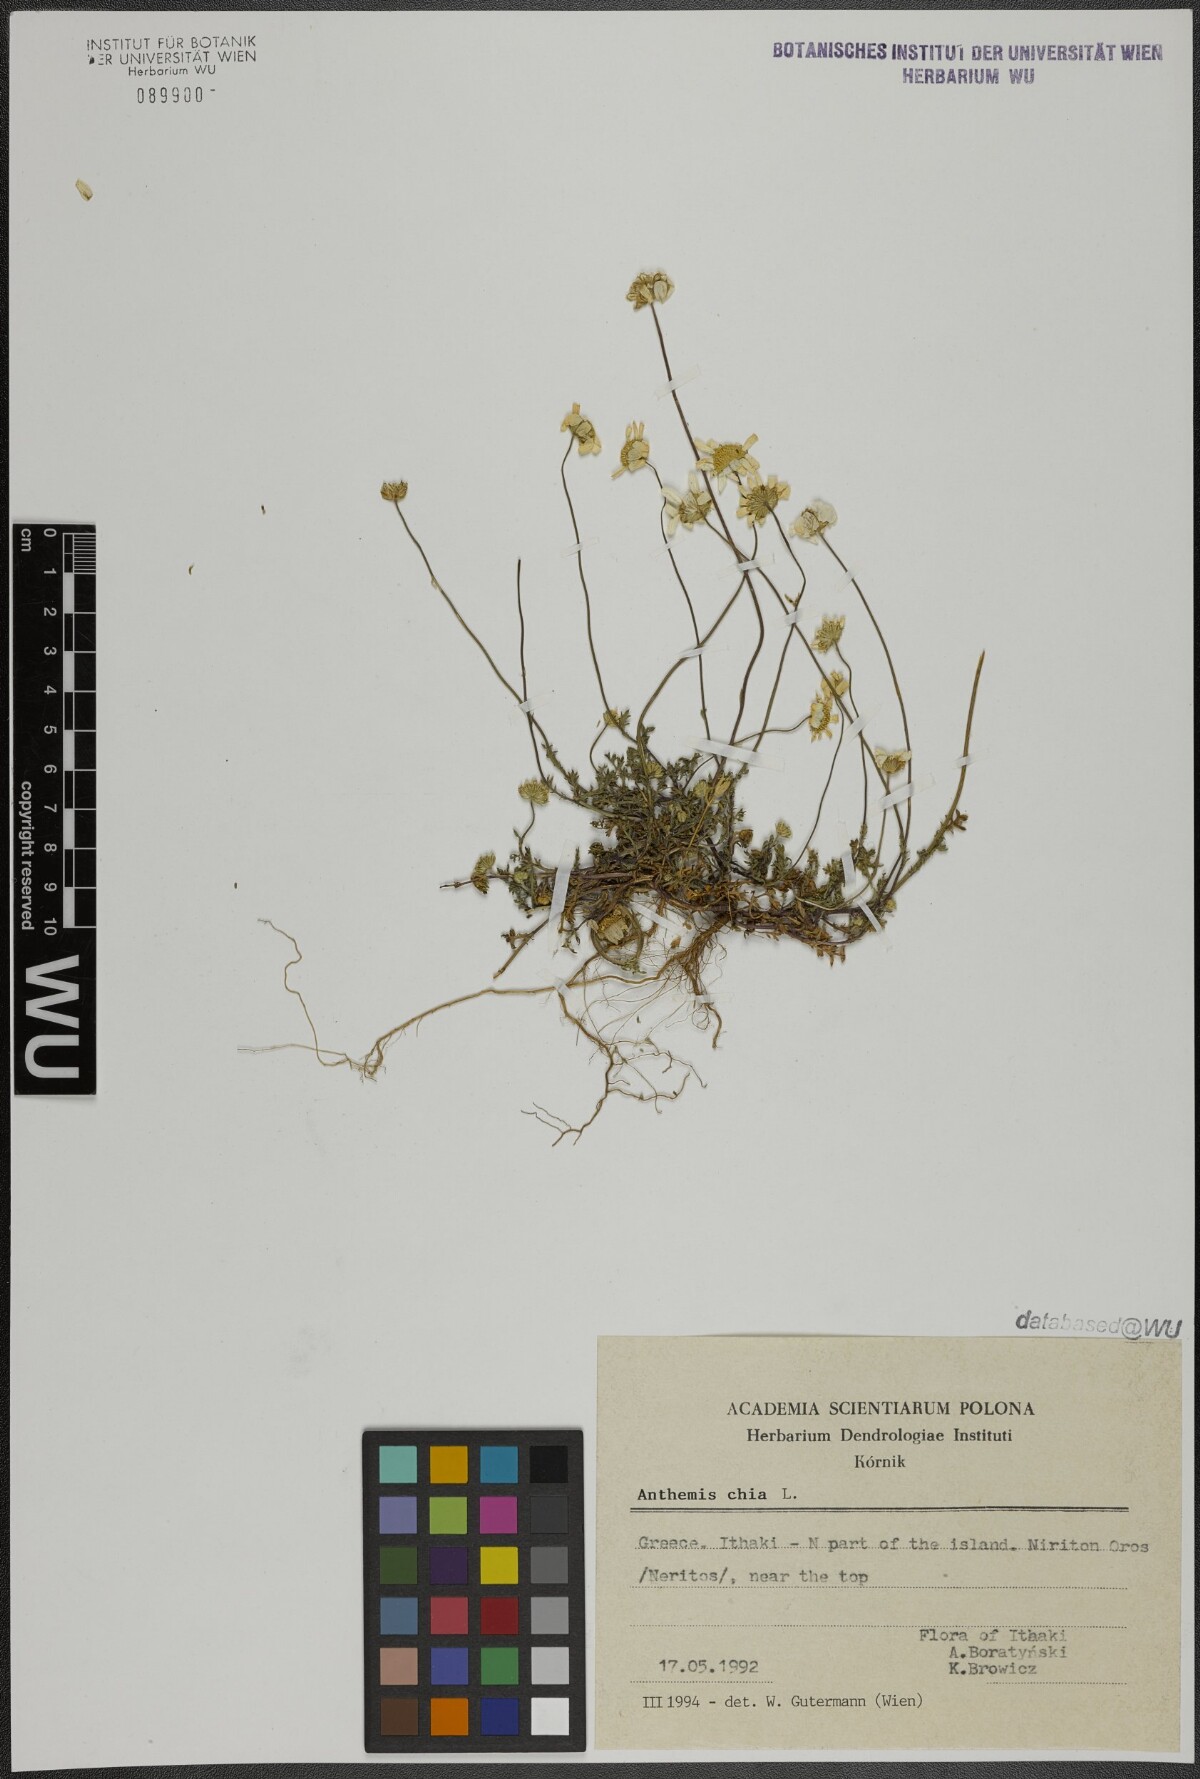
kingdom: Plantae
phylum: Tracheophyta
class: Magnoliopsida
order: Asterales
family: Asteraceae
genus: Anthemis
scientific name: Anthemis chia
